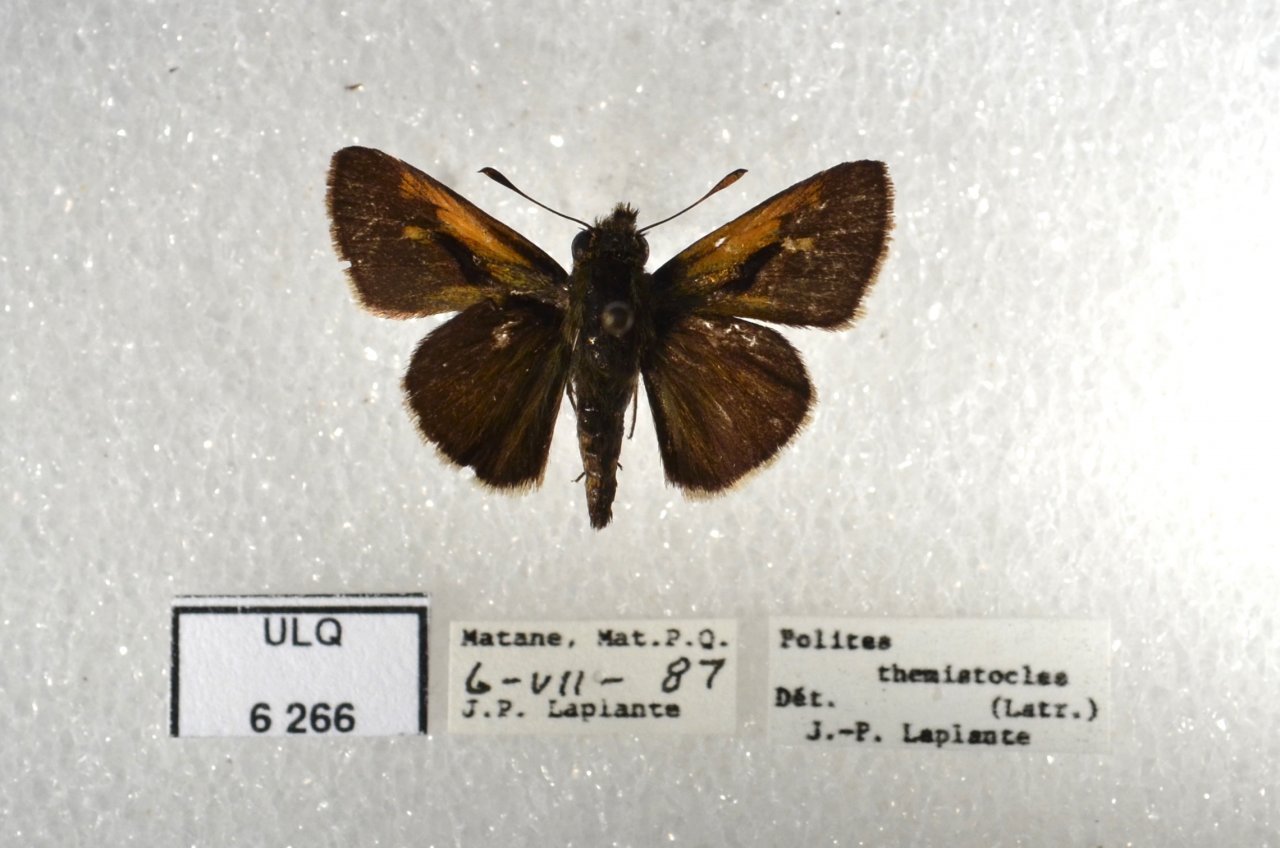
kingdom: Animalia
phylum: Arthropoda
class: Insecta
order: Lepidoptera
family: Hesperiidae
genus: Polites
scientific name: Polites themistocles
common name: Tawny-edged Skipper
